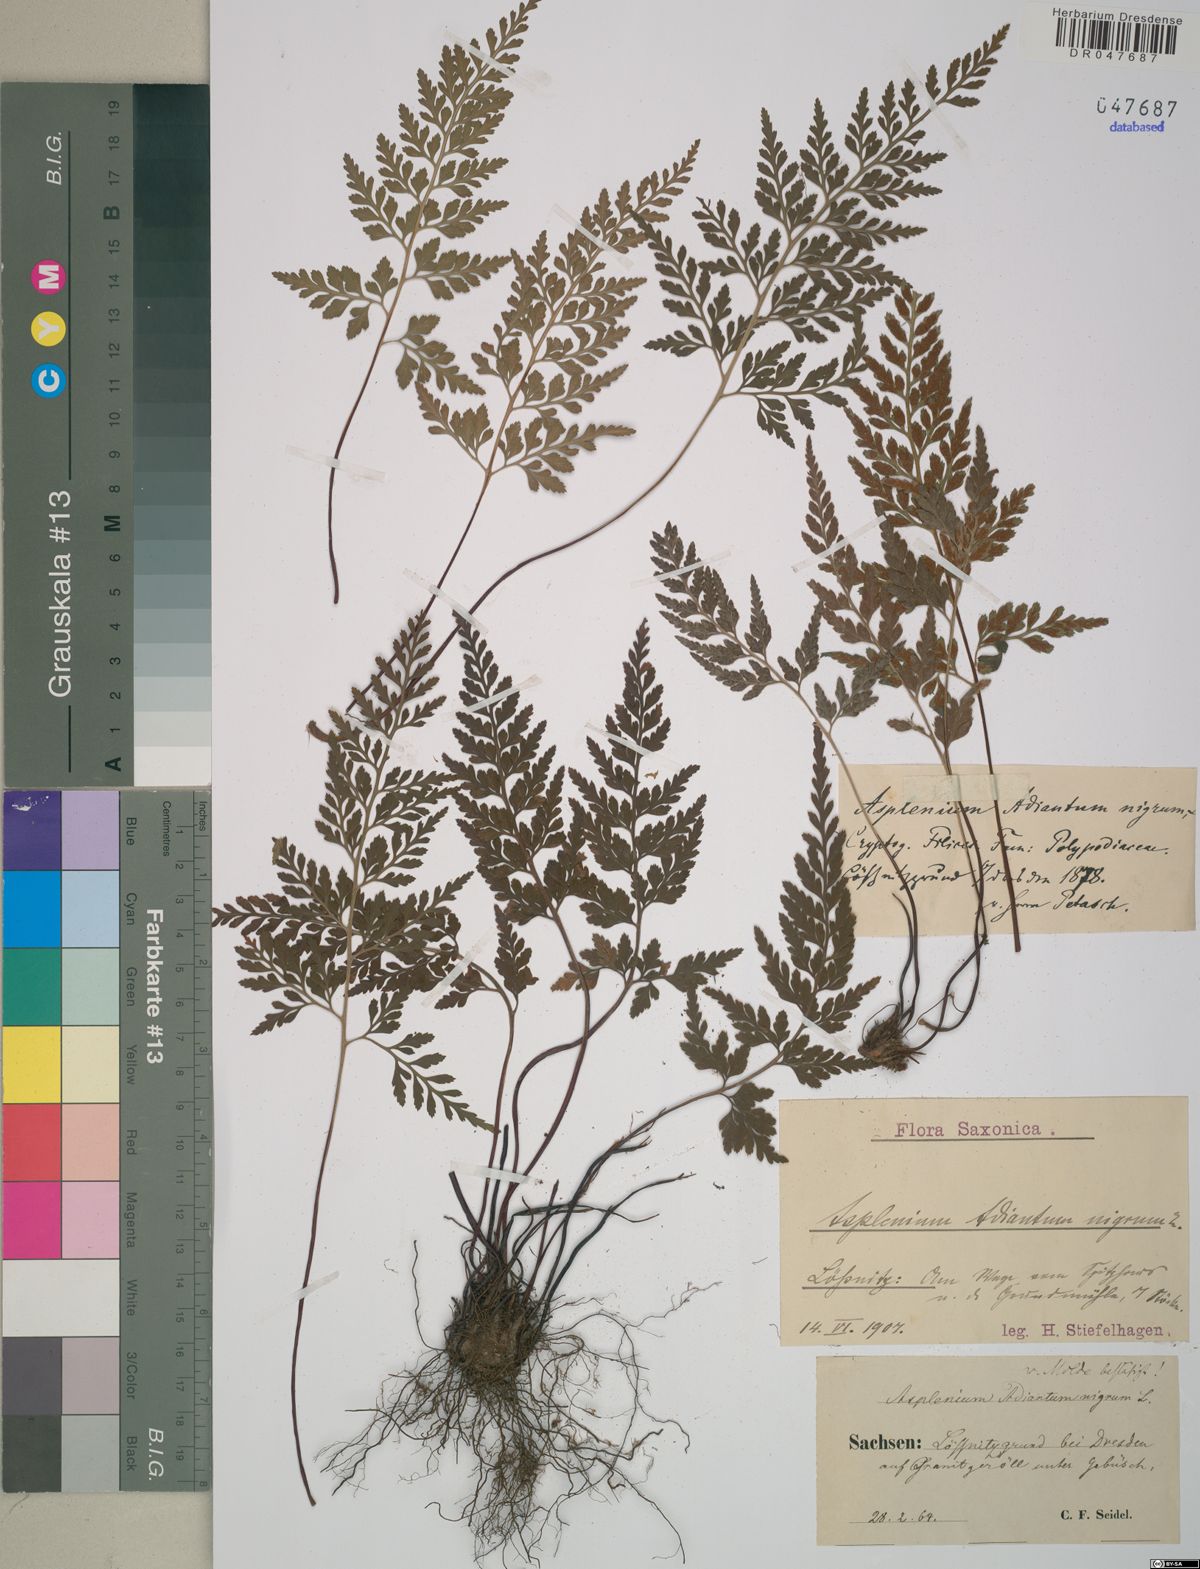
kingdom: Plantae
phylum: Tracheophyta
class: Polypodiopsida
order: Polypodiales
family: Aspleniaceae
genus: Asplenium
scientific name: Asplenium adiantum-nigrum
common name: Black spleenwort
